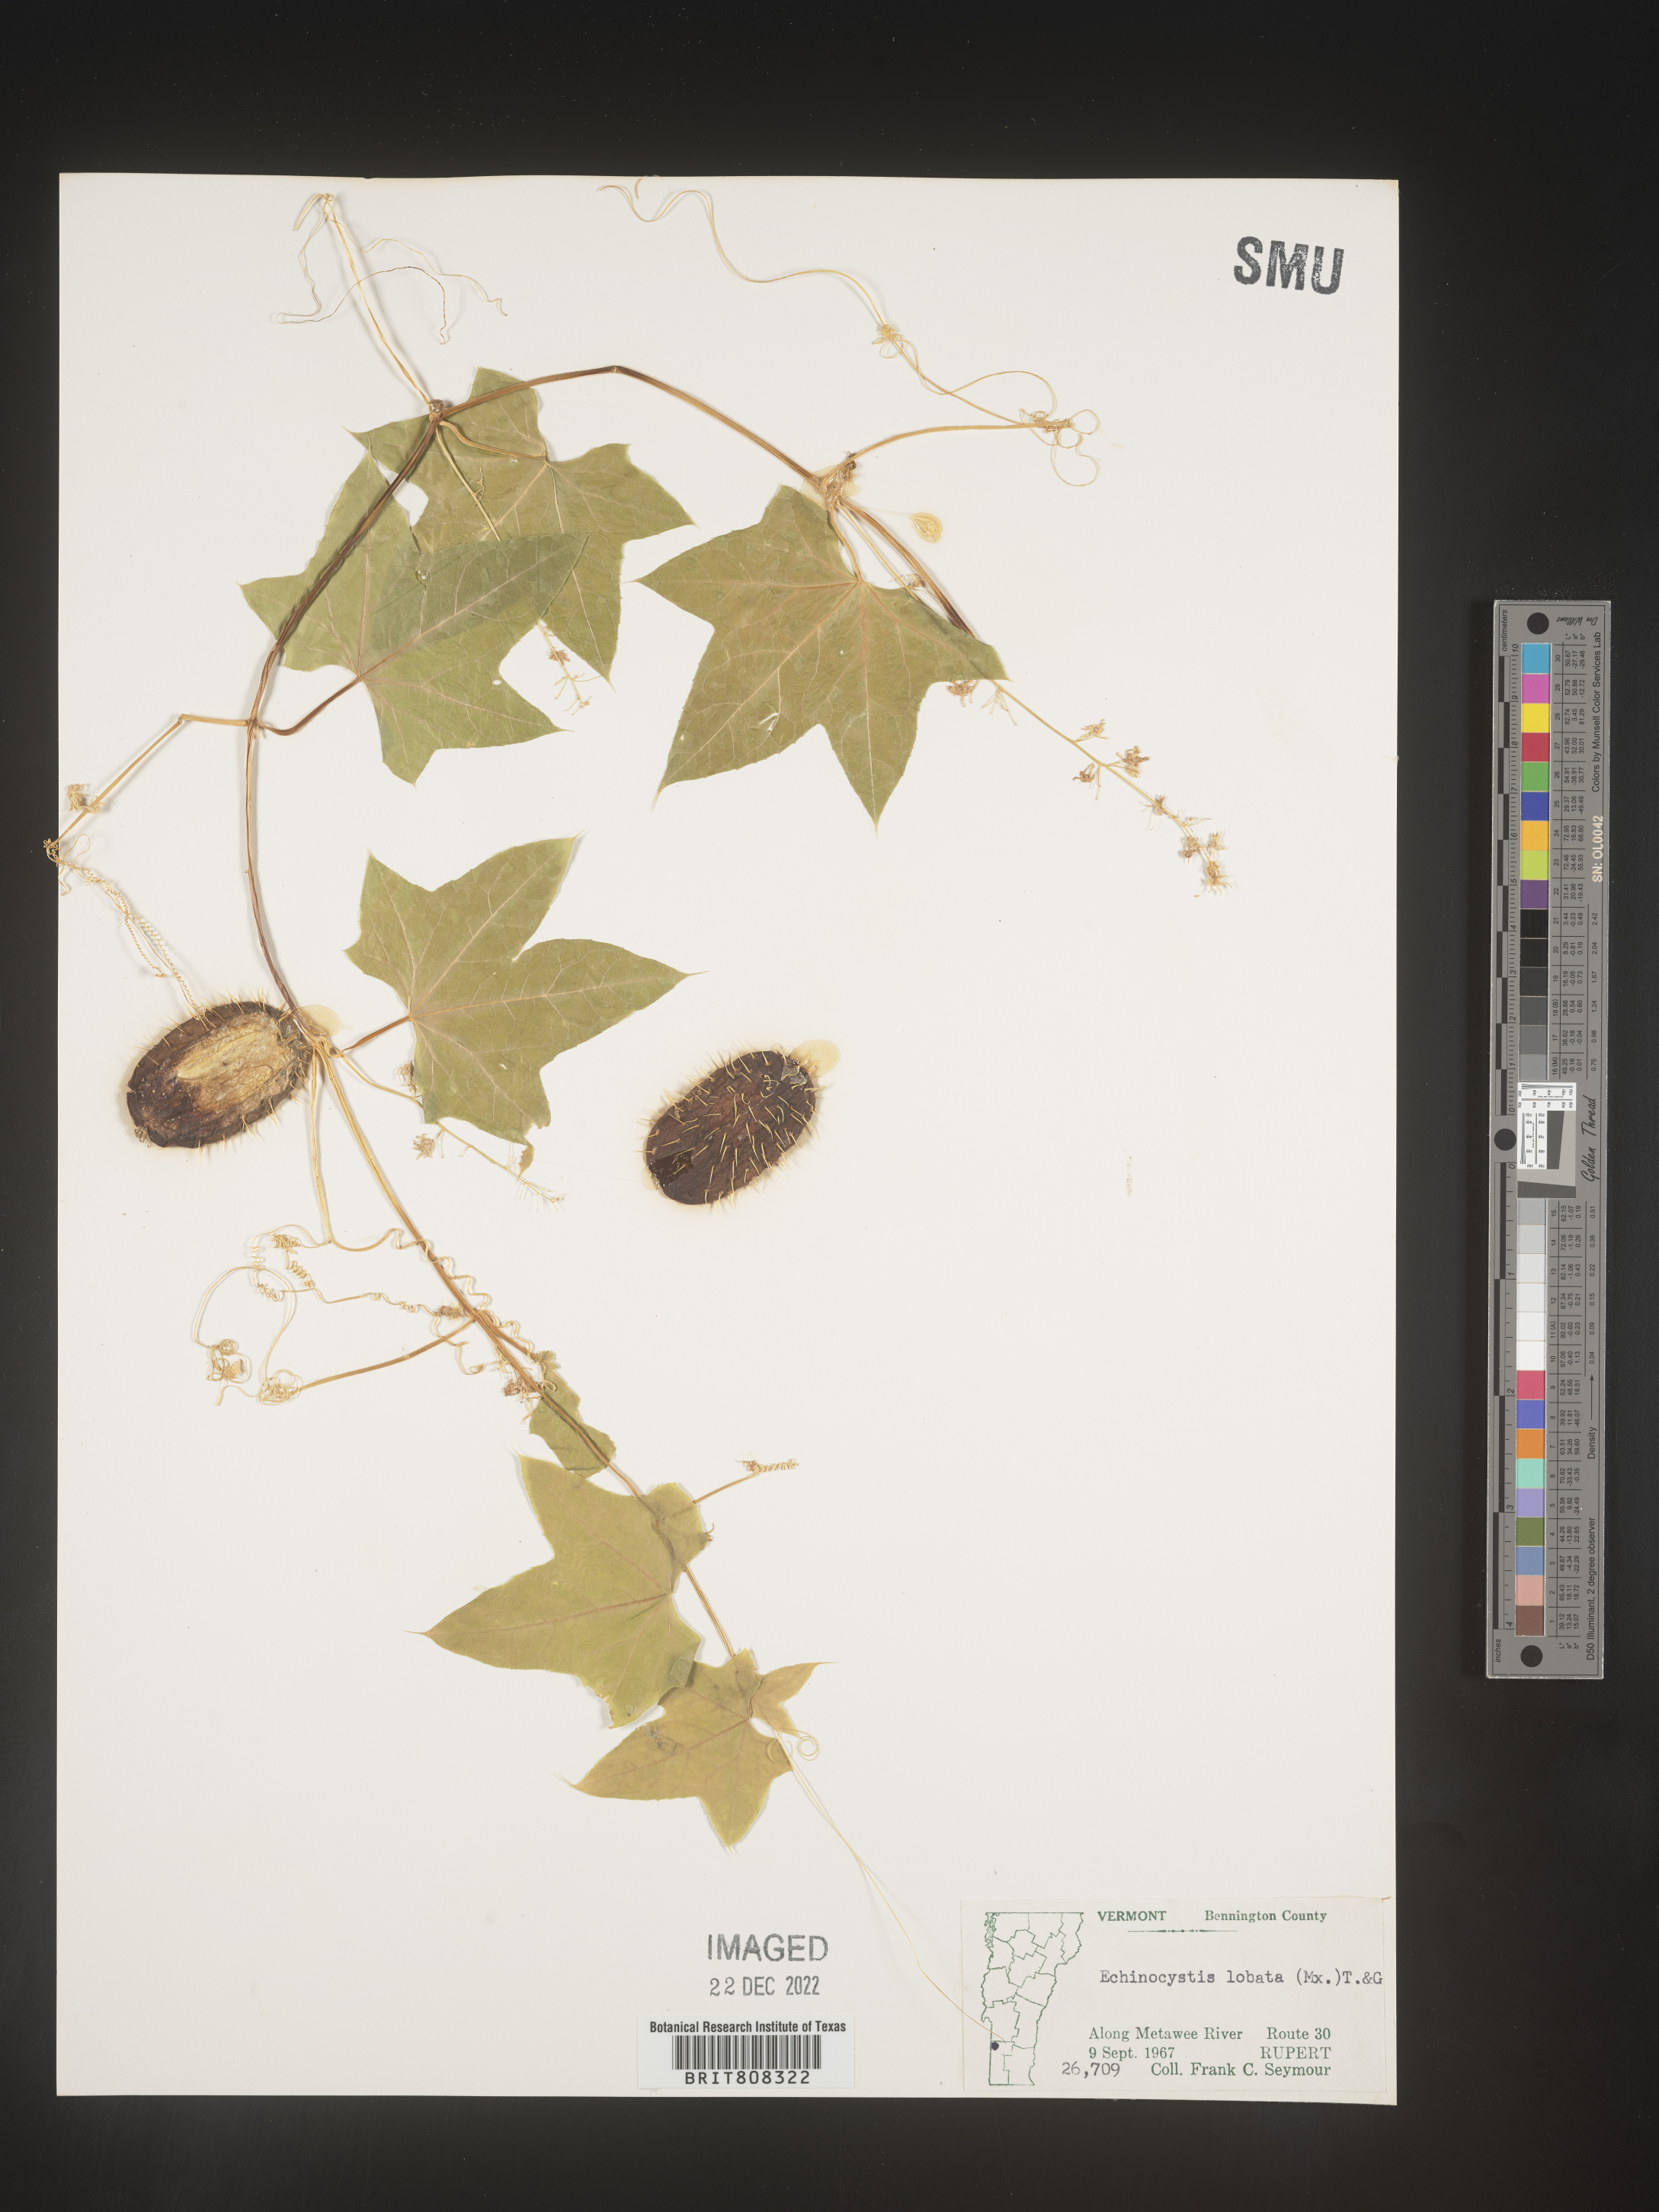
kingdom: Plantae
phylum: Tracheophyta
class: Magnoliopsida
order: Cucurbitales
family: Cucurbitaceae
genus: Echinocystis
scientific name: Echinocystis
